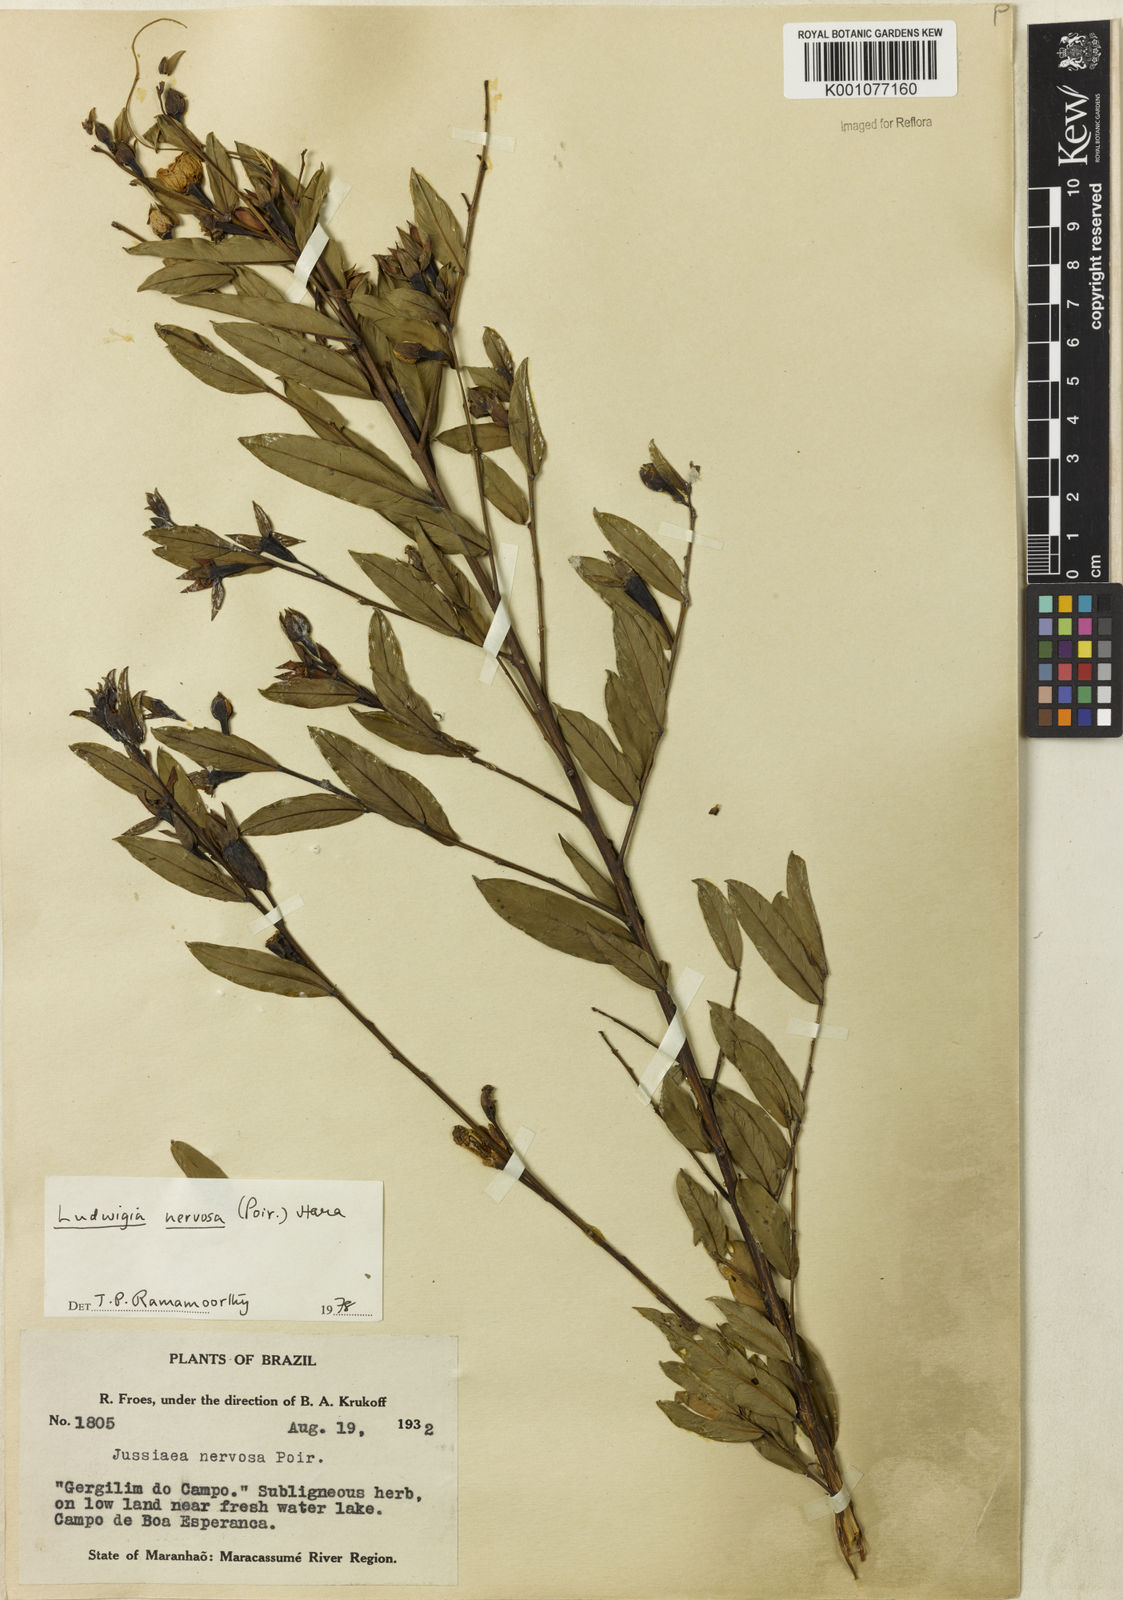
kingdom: Plantae
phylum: Tracheophyta
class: Magnoliopsida
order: Myrtales
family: Onagraceae
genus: Ludwigia
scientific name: Ludwigia nervosa
